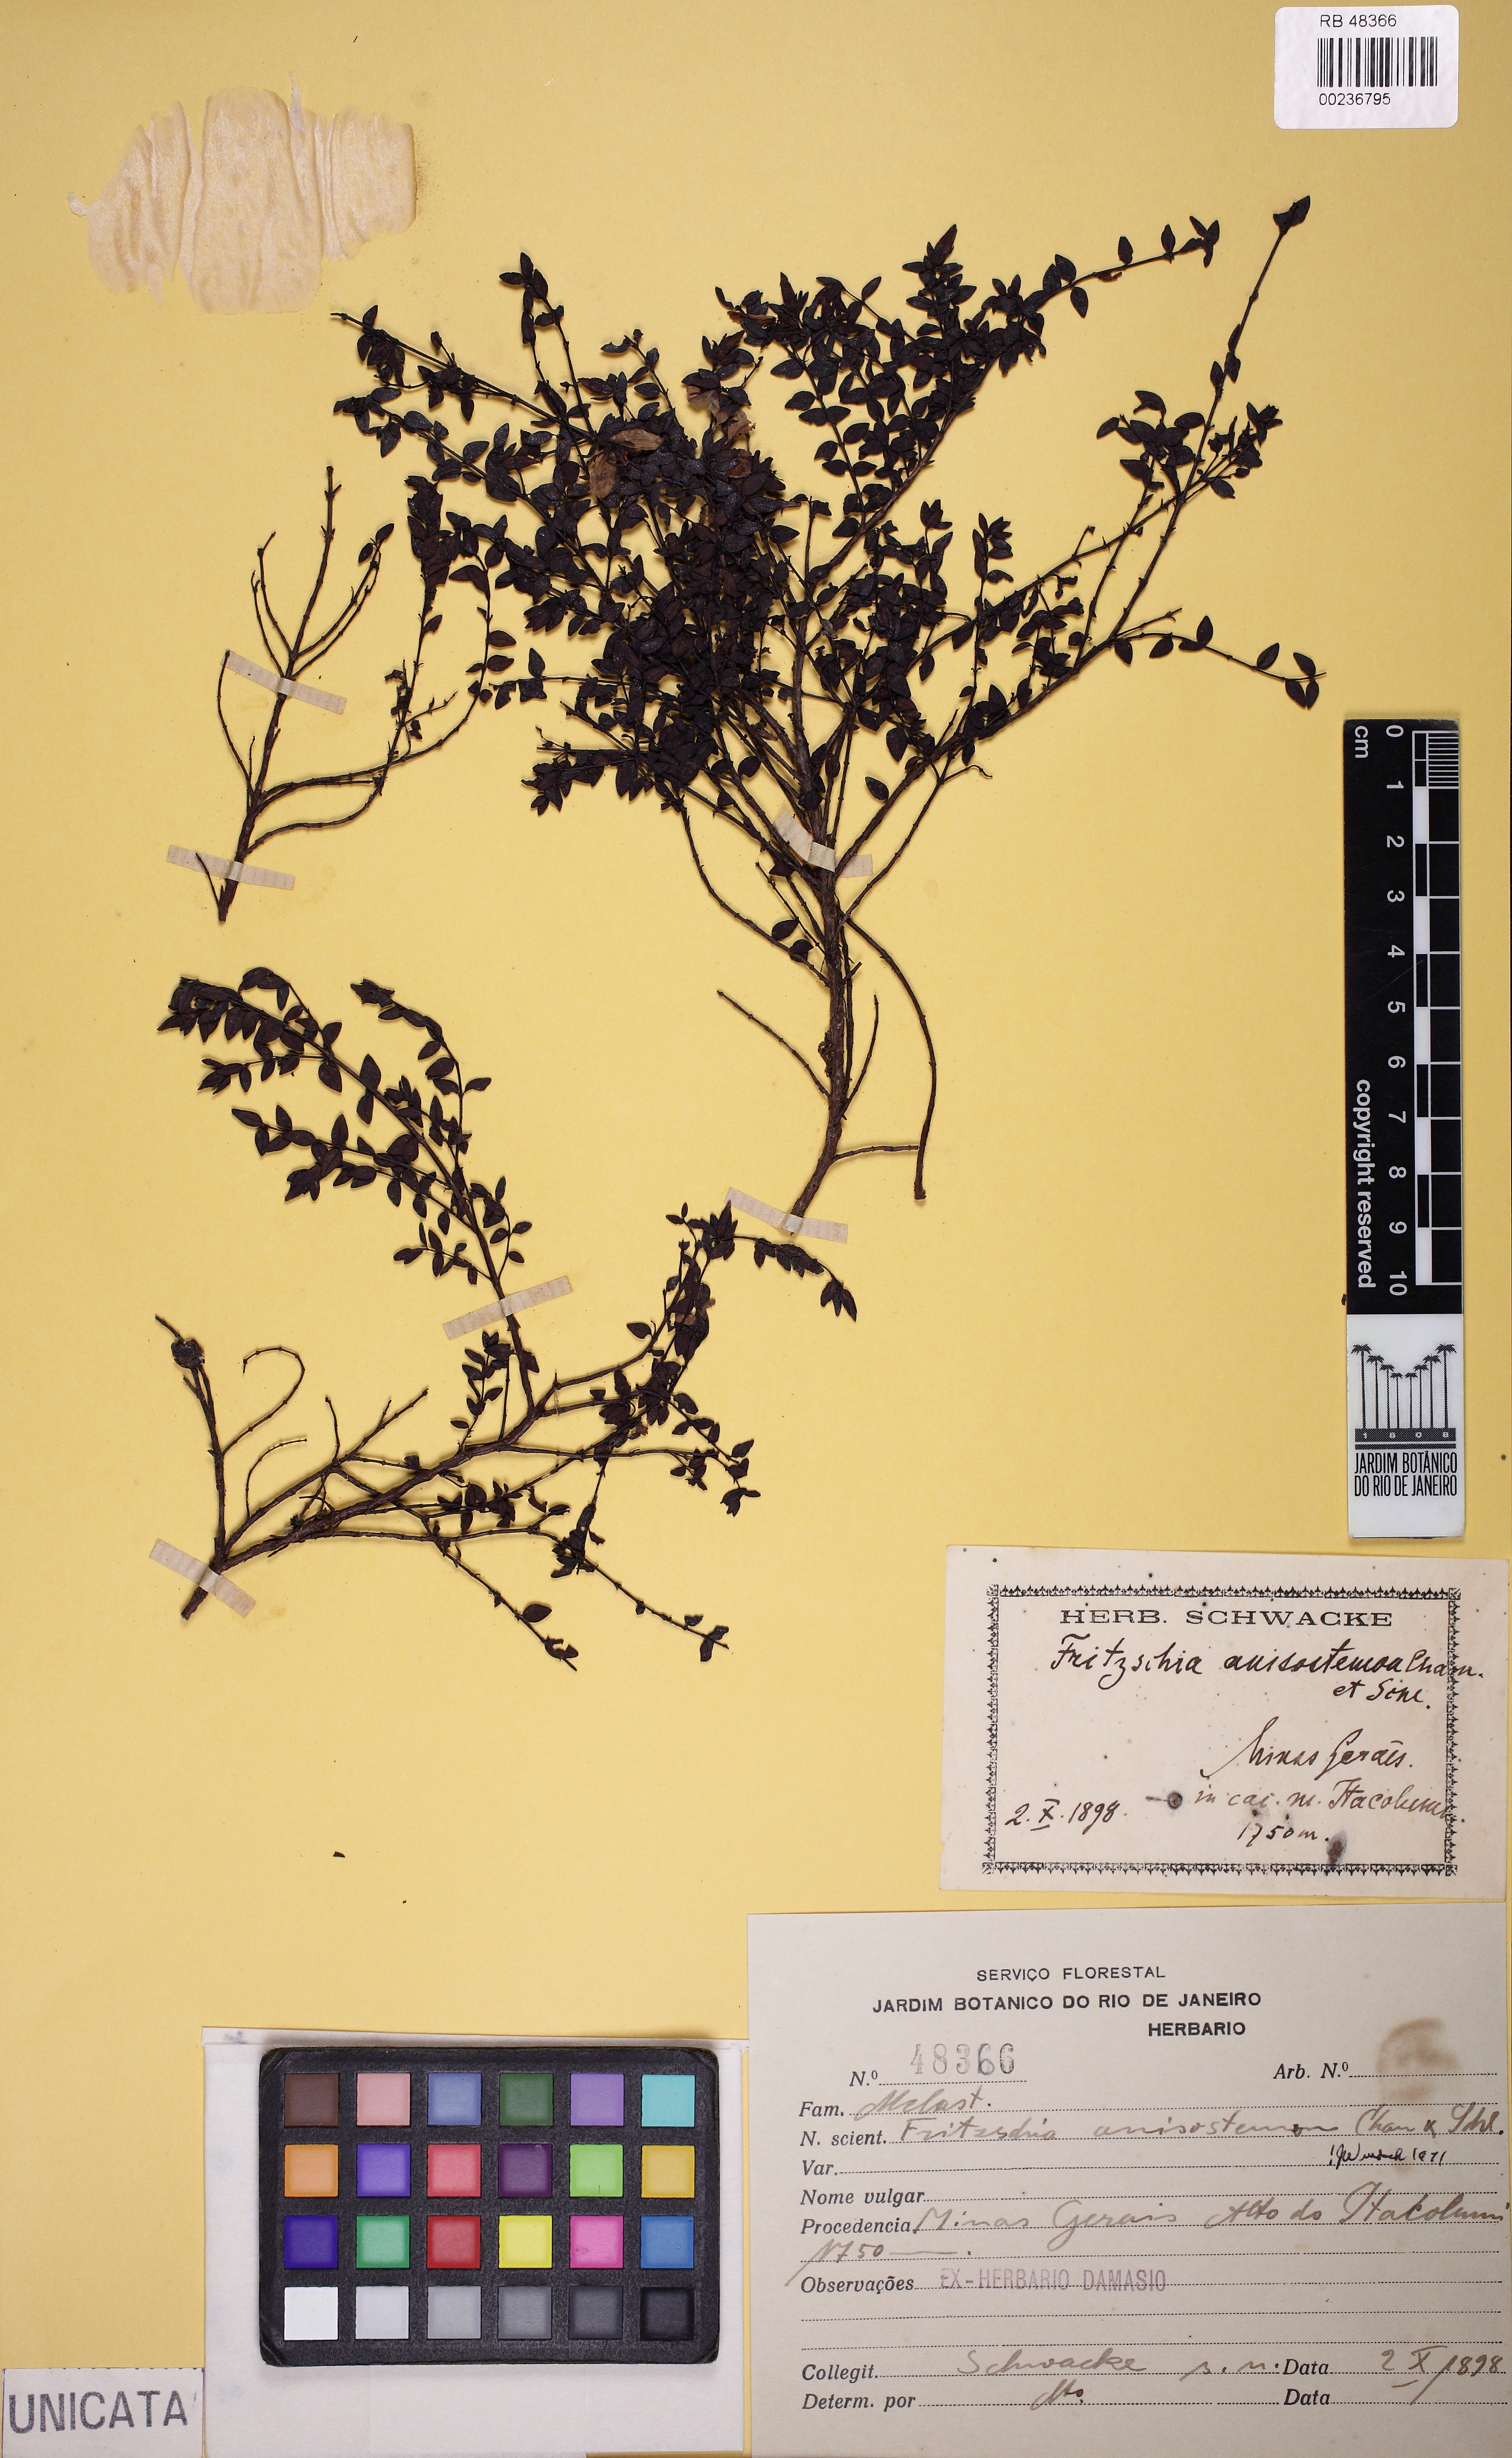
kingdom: Plantae
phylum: Tracheophyta
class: Magnoliopsida
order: Myrtales
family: Melastomataceae
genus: Fritzschia
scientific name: Fritzschia anisostemon
